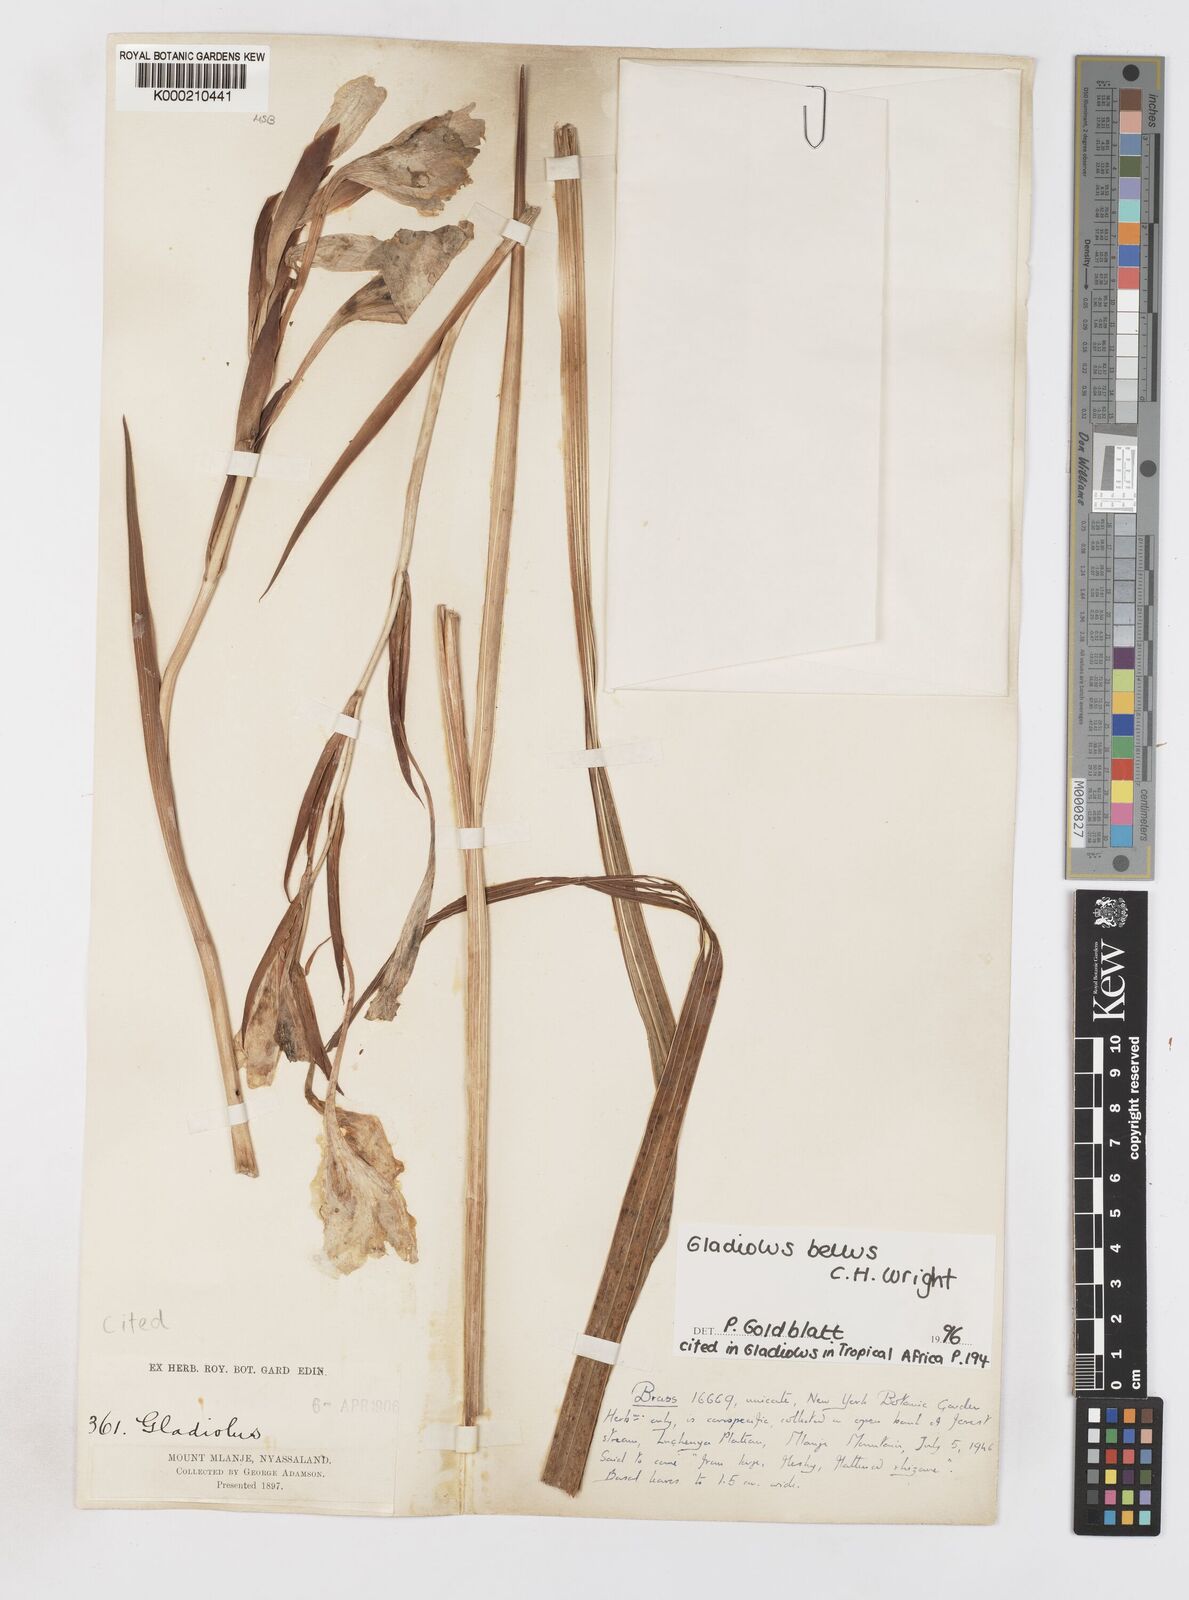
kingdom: Plantae
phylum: Tracheophyta
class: Liliopsida
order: Asparagales
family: Iridaceae
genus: Gladiolus
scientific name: Gladiolus bellus
